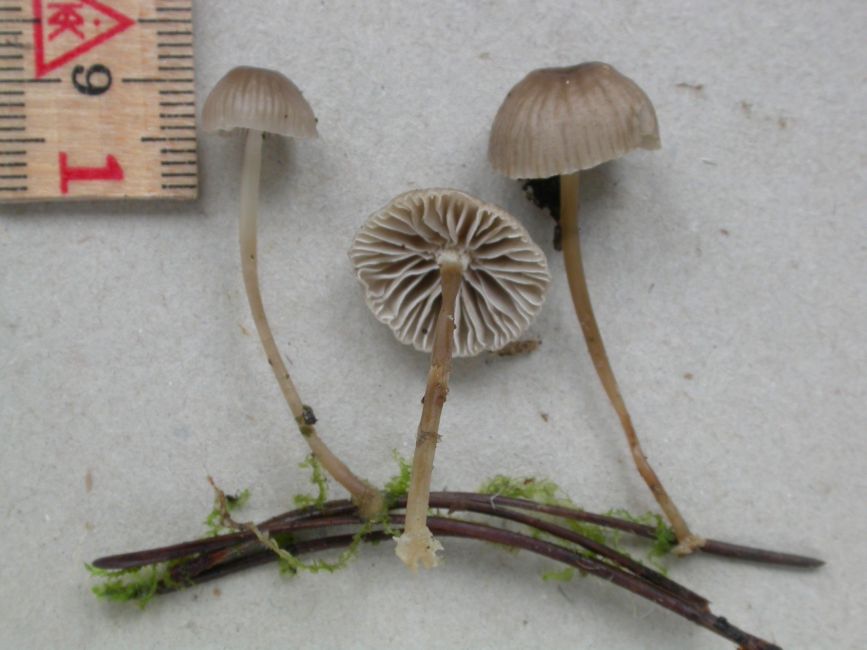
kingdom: Fungi
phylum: Basidiomycota
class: Agaricomycetes
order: Agaricales
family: Mycenaceae
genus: Mycena
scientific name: Mycena clavicularis
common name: fyrre-huesvamp
